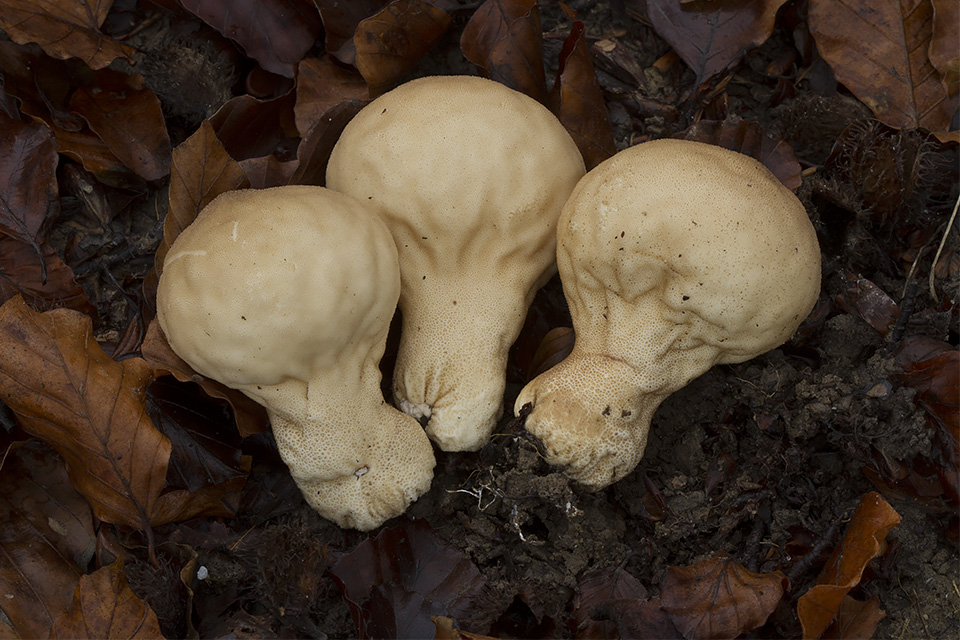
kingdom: Fungi
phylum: Basidiomycota
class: Agaricomycetes
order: Agaricales
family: Lycoperdaceae
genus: Lycoperdon
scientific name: Lycoperdon molle
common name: skov-støvbold
